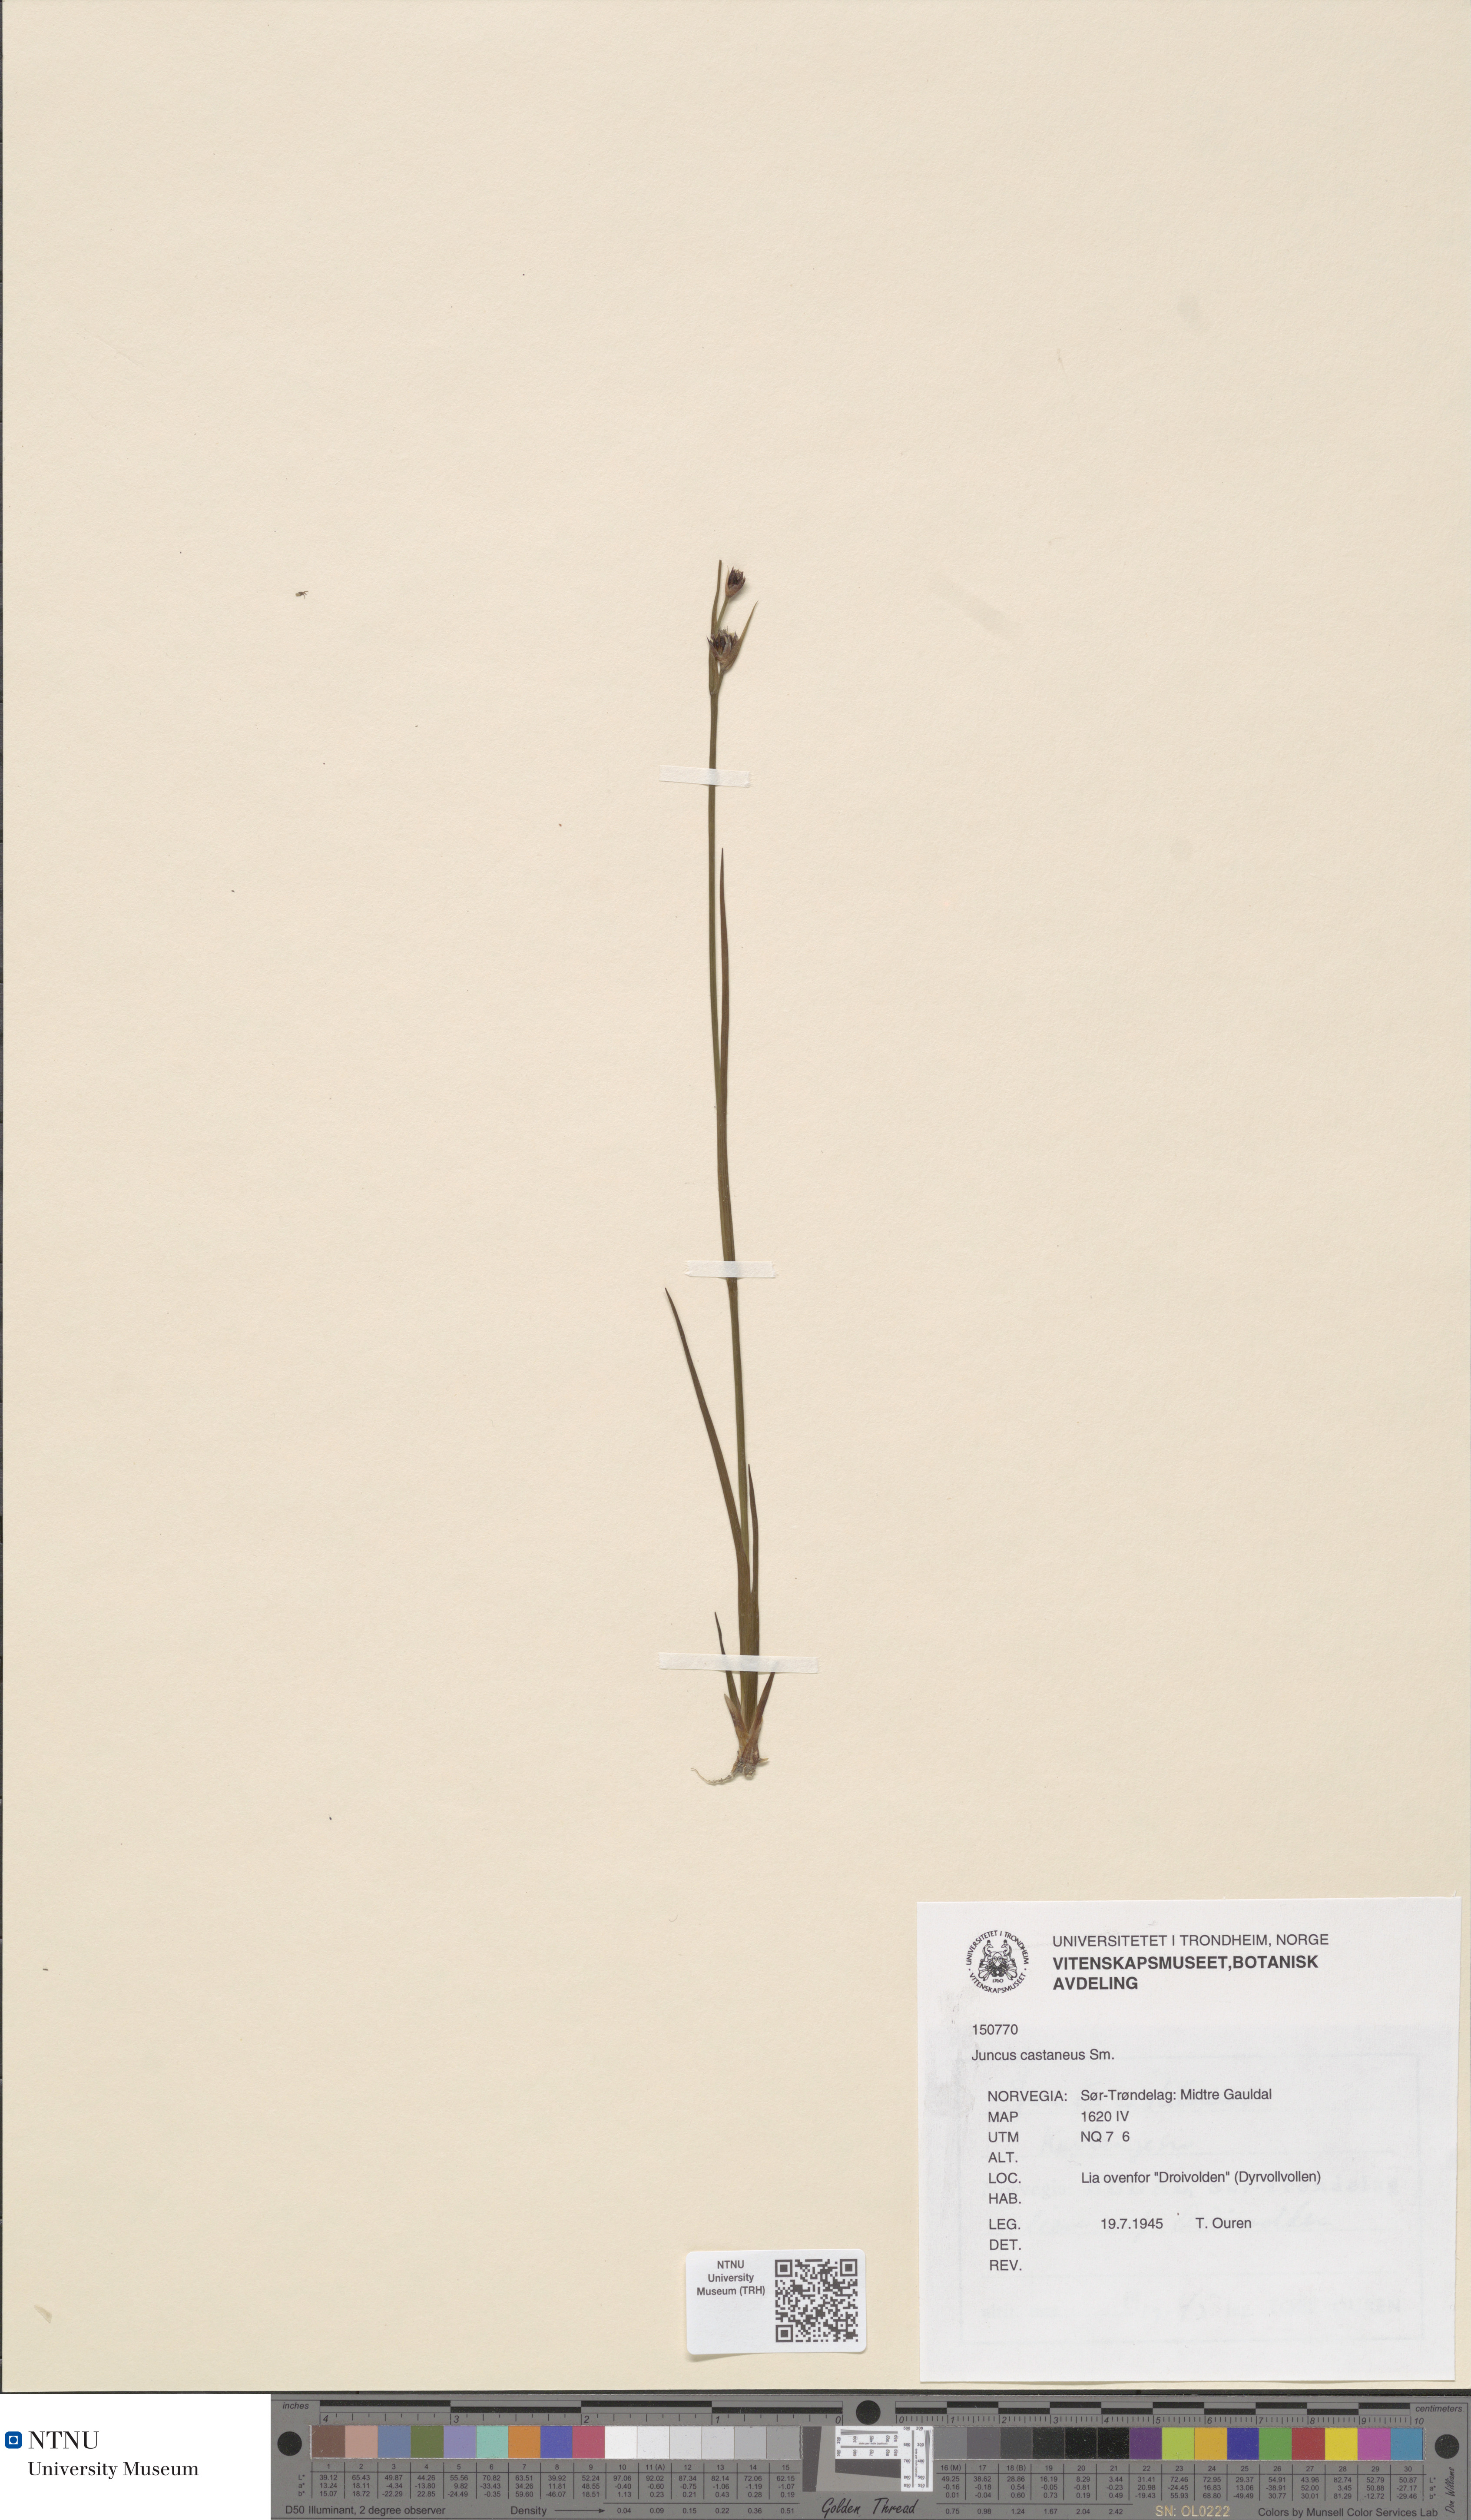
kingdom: Plantae
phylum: Tracheophyta
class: Liliopsida
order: Poales
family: Juncaceae
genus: Juncus
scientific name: Juncus castaneus
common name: Chestnut rush
